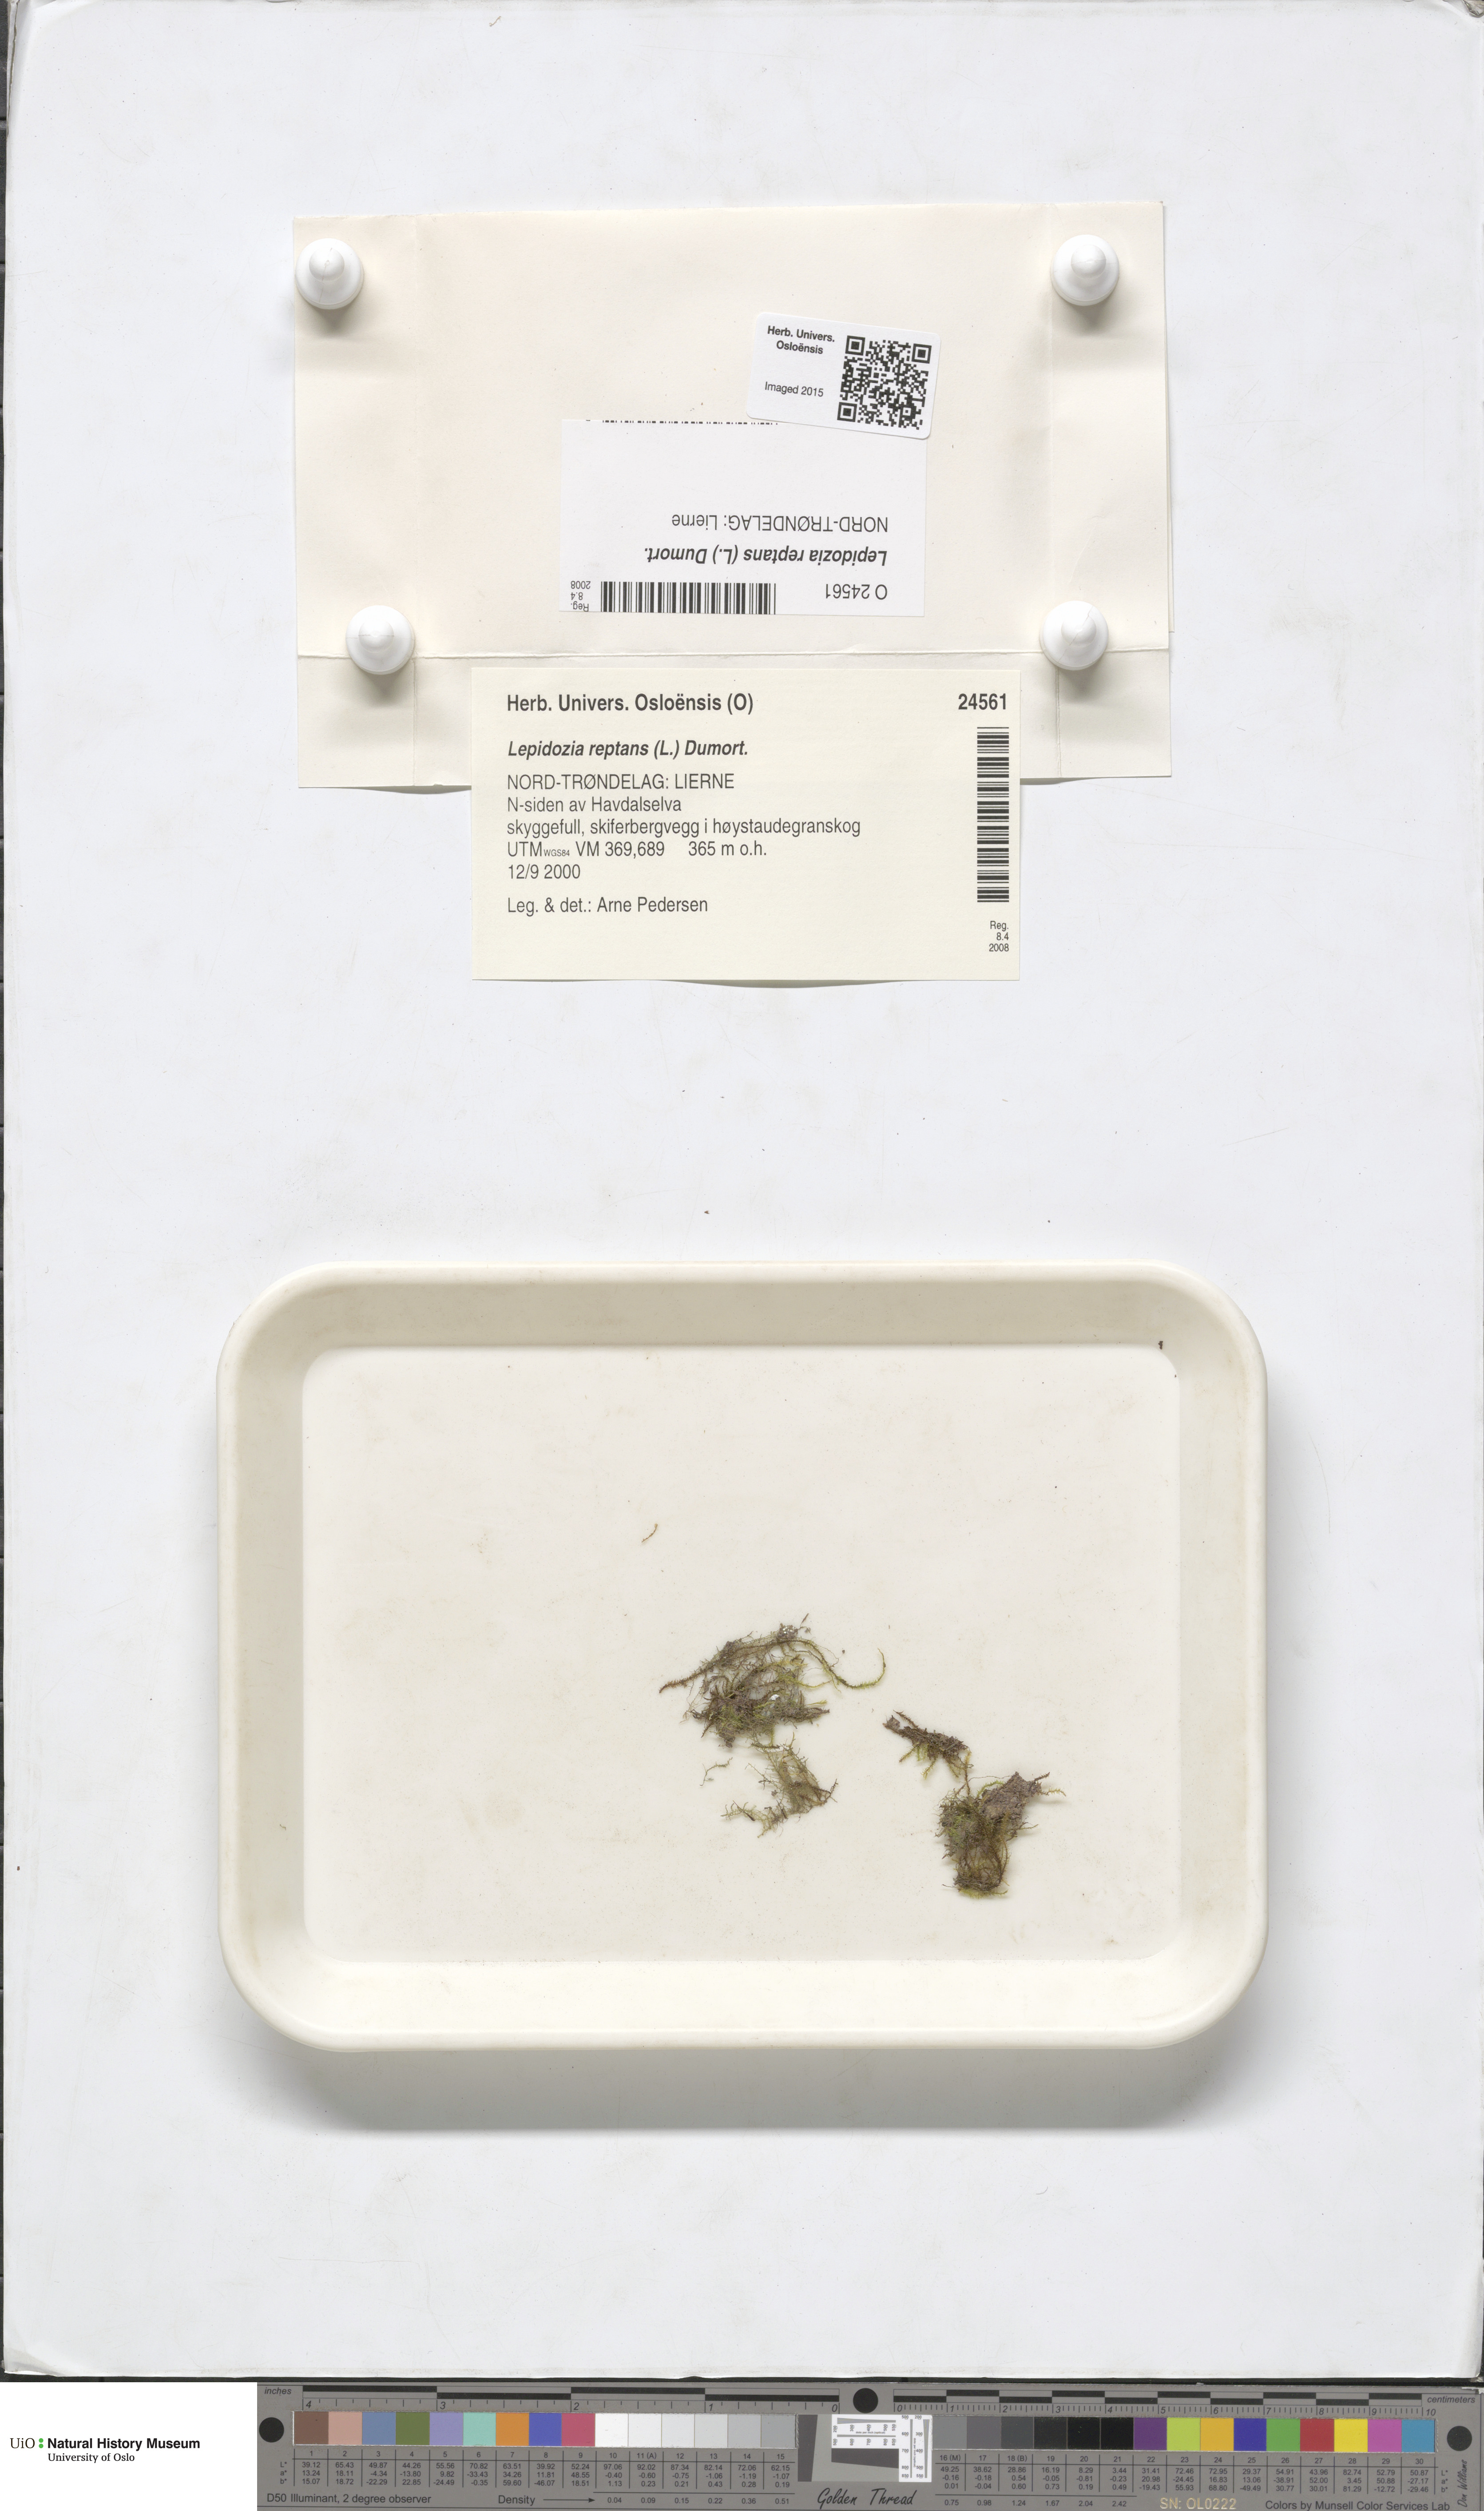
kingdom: Plantae
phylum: Marchantiophyta
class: Jungermanniopsida
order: Jungermanniales
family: Lepidoziaceae
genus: Lepidozia
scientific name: Lepidozia reptans
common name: Creeping fingerwort
